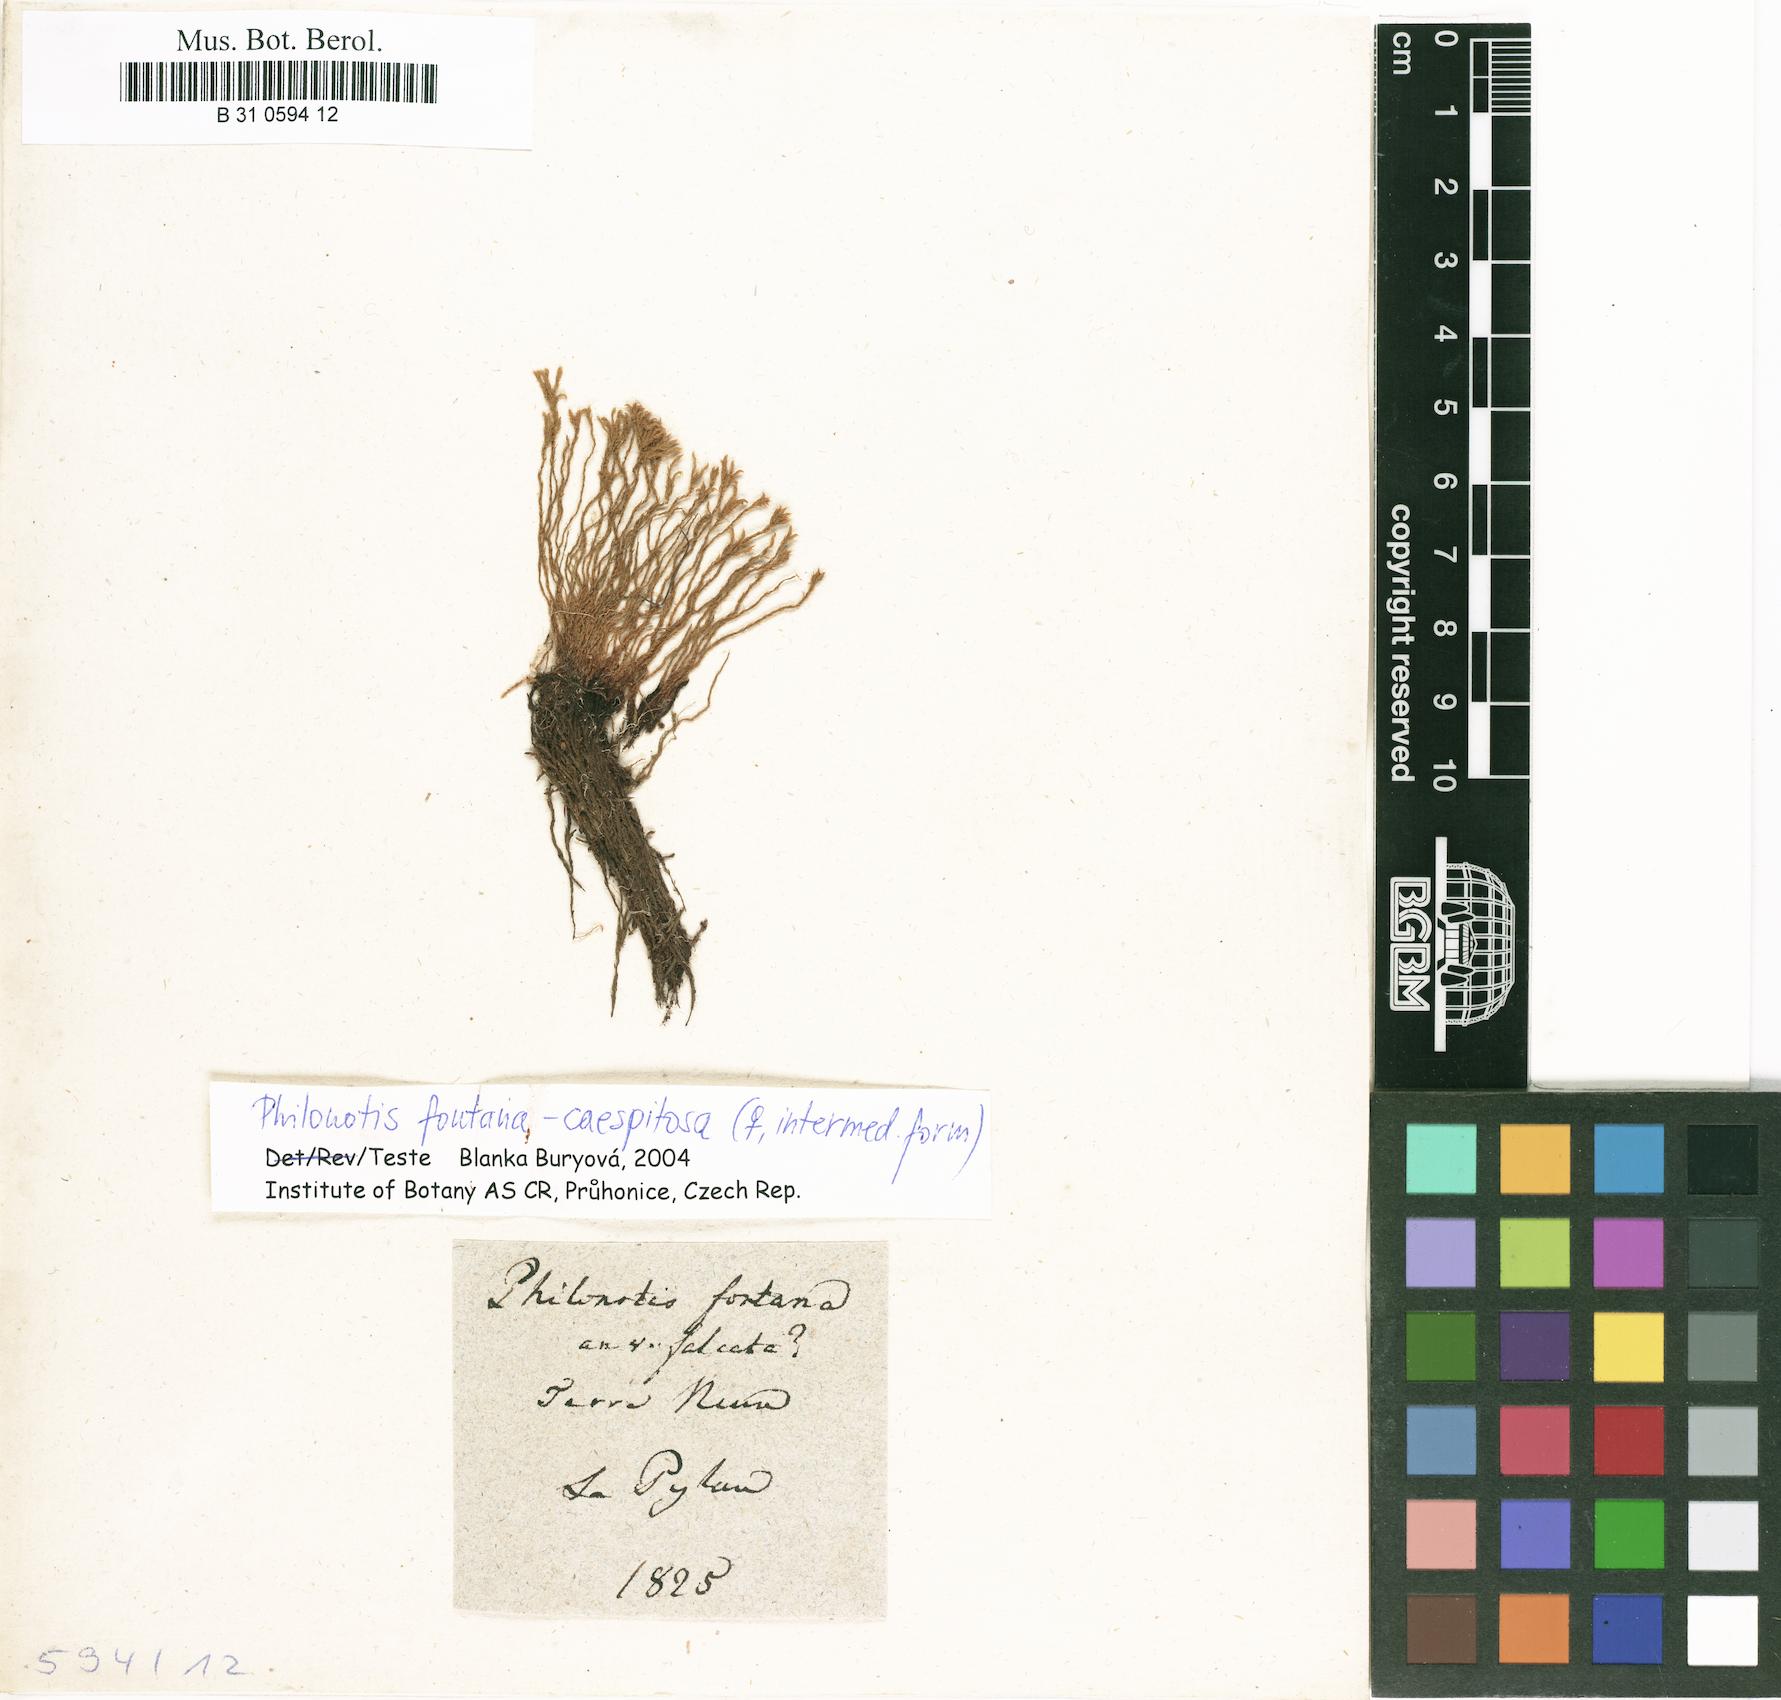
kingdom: Plantae
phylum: Bryophyta
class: Bryopsida
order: Bartramiales
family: Bartramiaceae
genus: Philonotis
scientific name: Philonotis fontana
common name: Fountain apple-moss
